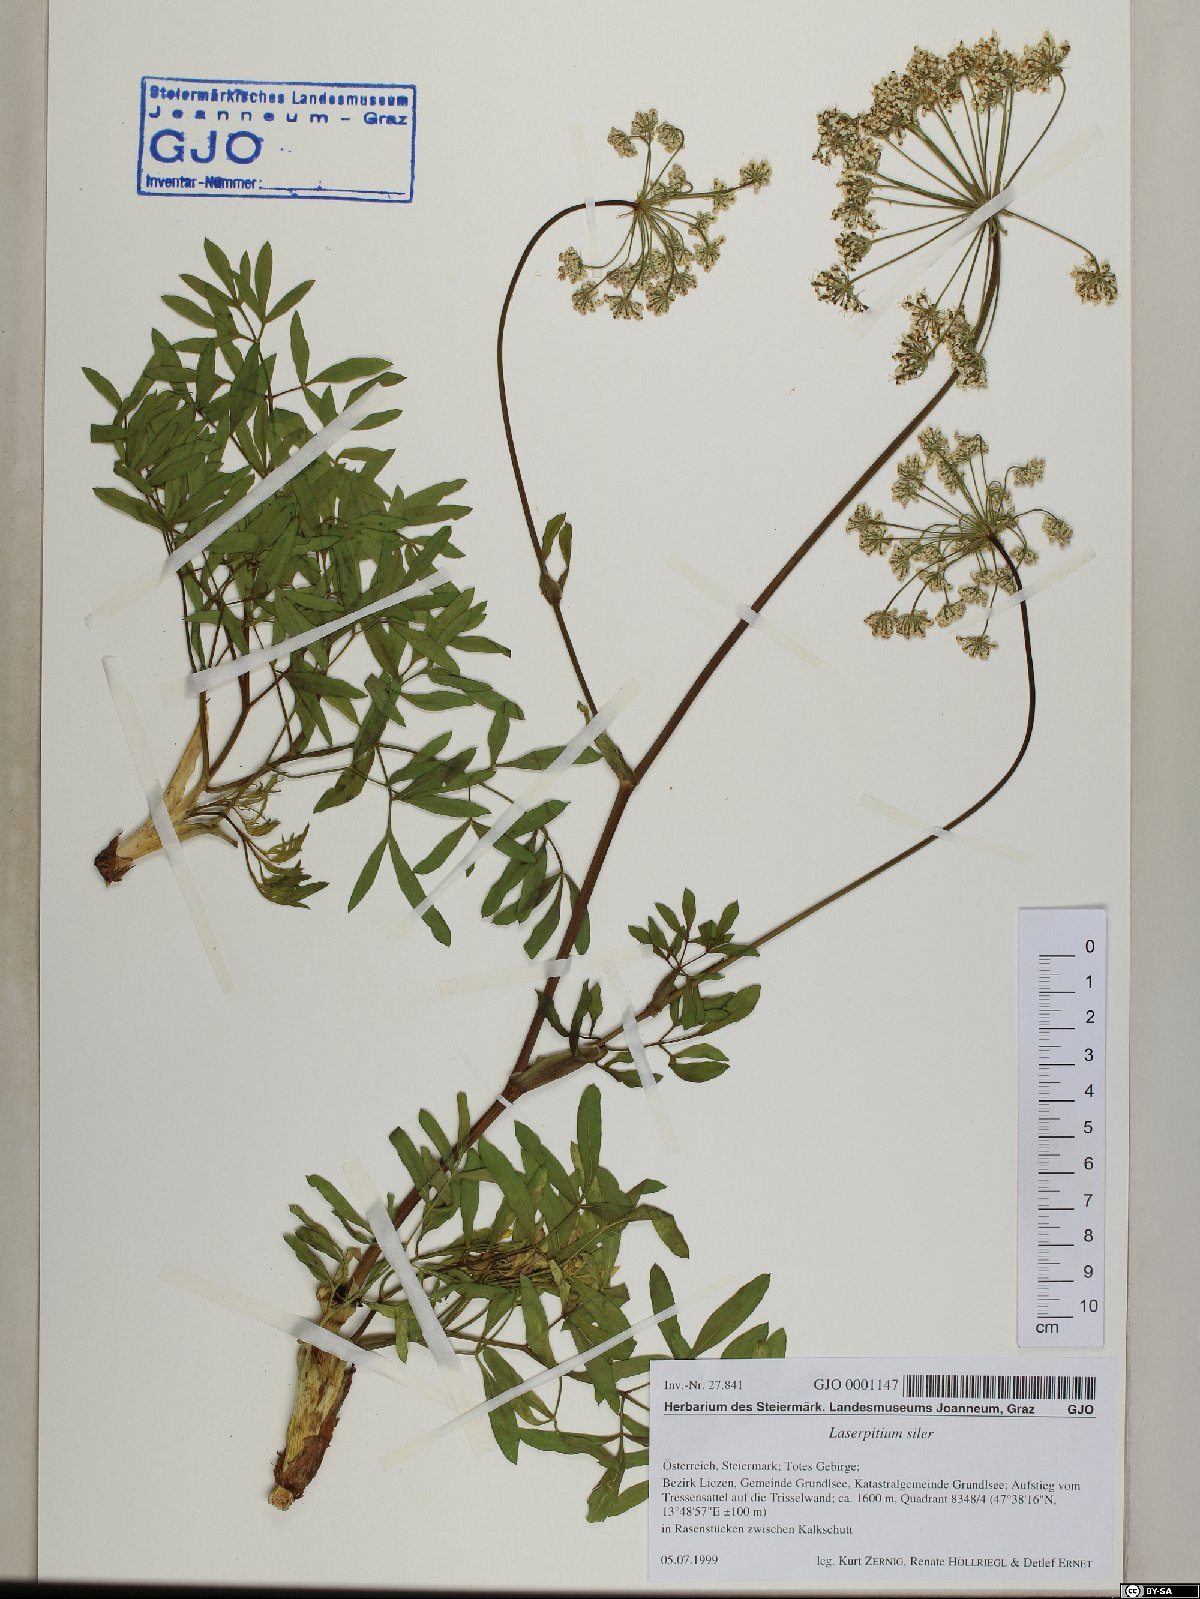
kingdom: Plantae
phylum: Tracheophyta
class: Magnoliopsida
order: Apiales
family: Apiaceae
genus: Siler
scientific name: Siler montanum
